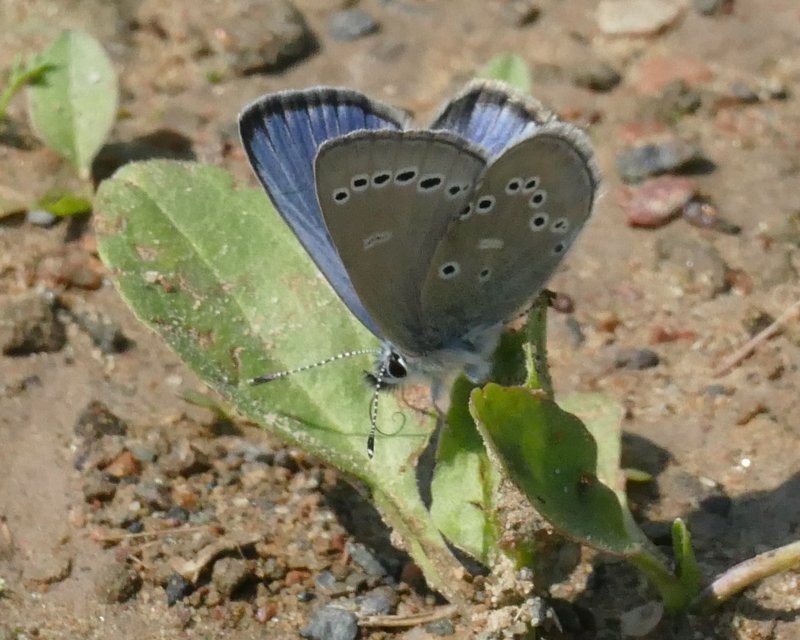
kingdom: Animalia
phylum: Arthropoda
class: Insecta
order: Lepidoptera
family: Lycaenidae
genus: Glaucopsyche
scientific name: Glaucopsyche lygdamus
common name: Silvery Blue
